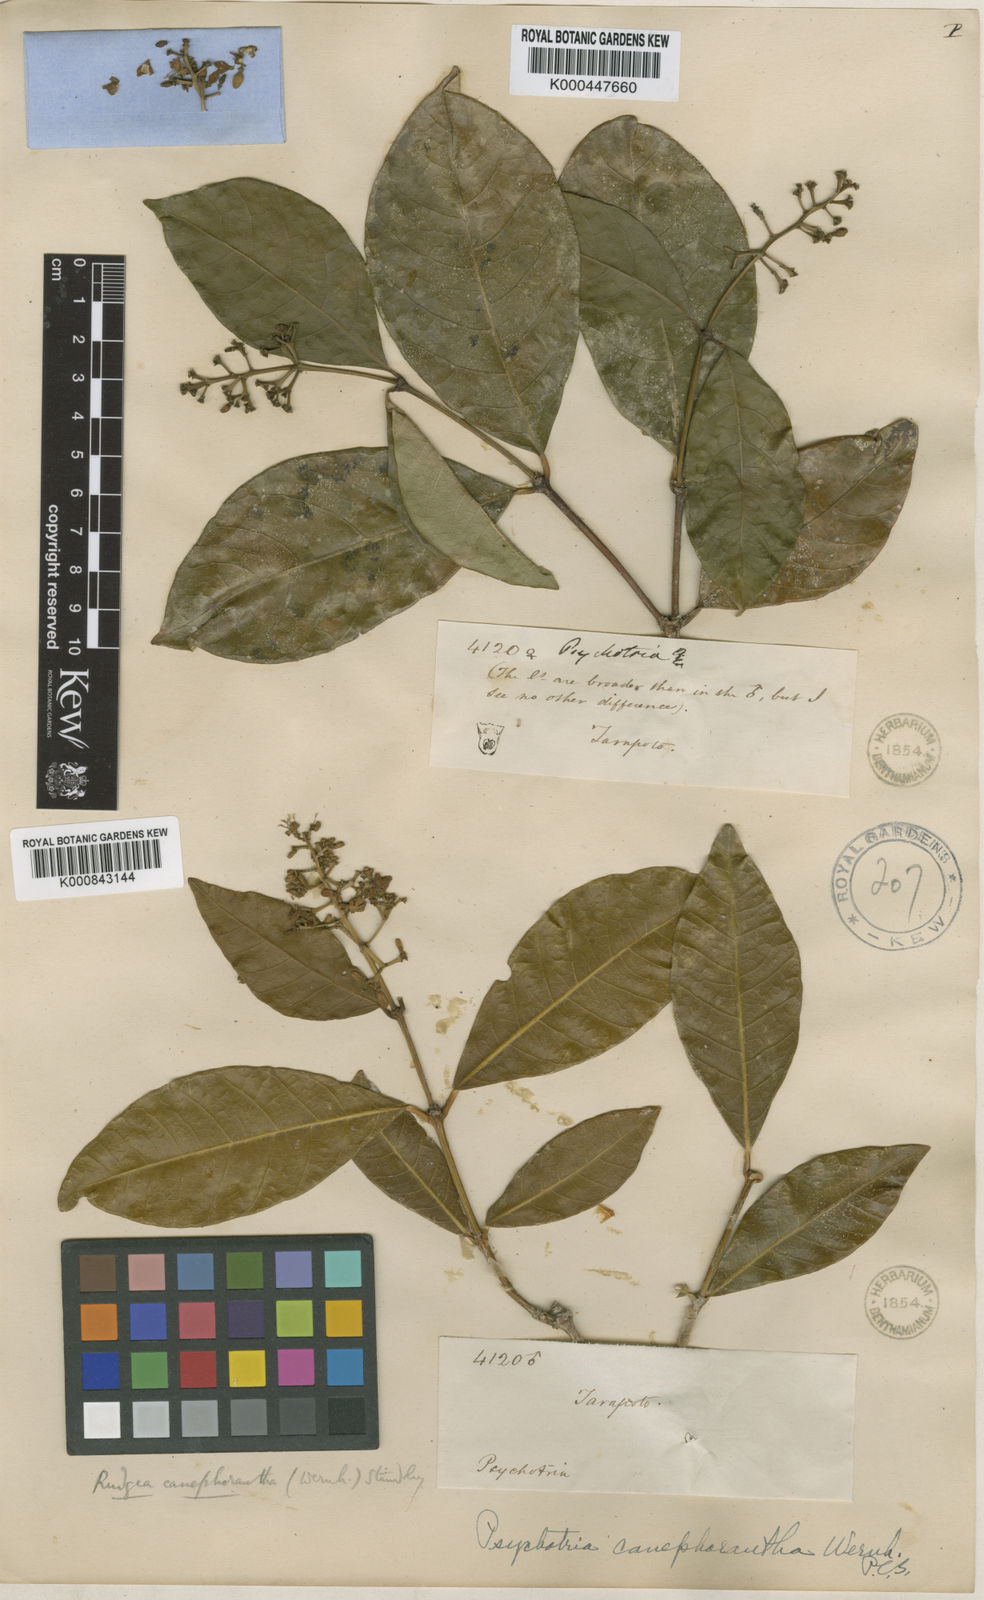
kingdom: Plantae
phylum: Tracheophyta
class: Magnoliopsida
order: Gentianales
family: Rubiaceae
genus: Rudgea
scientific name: Rudgea
